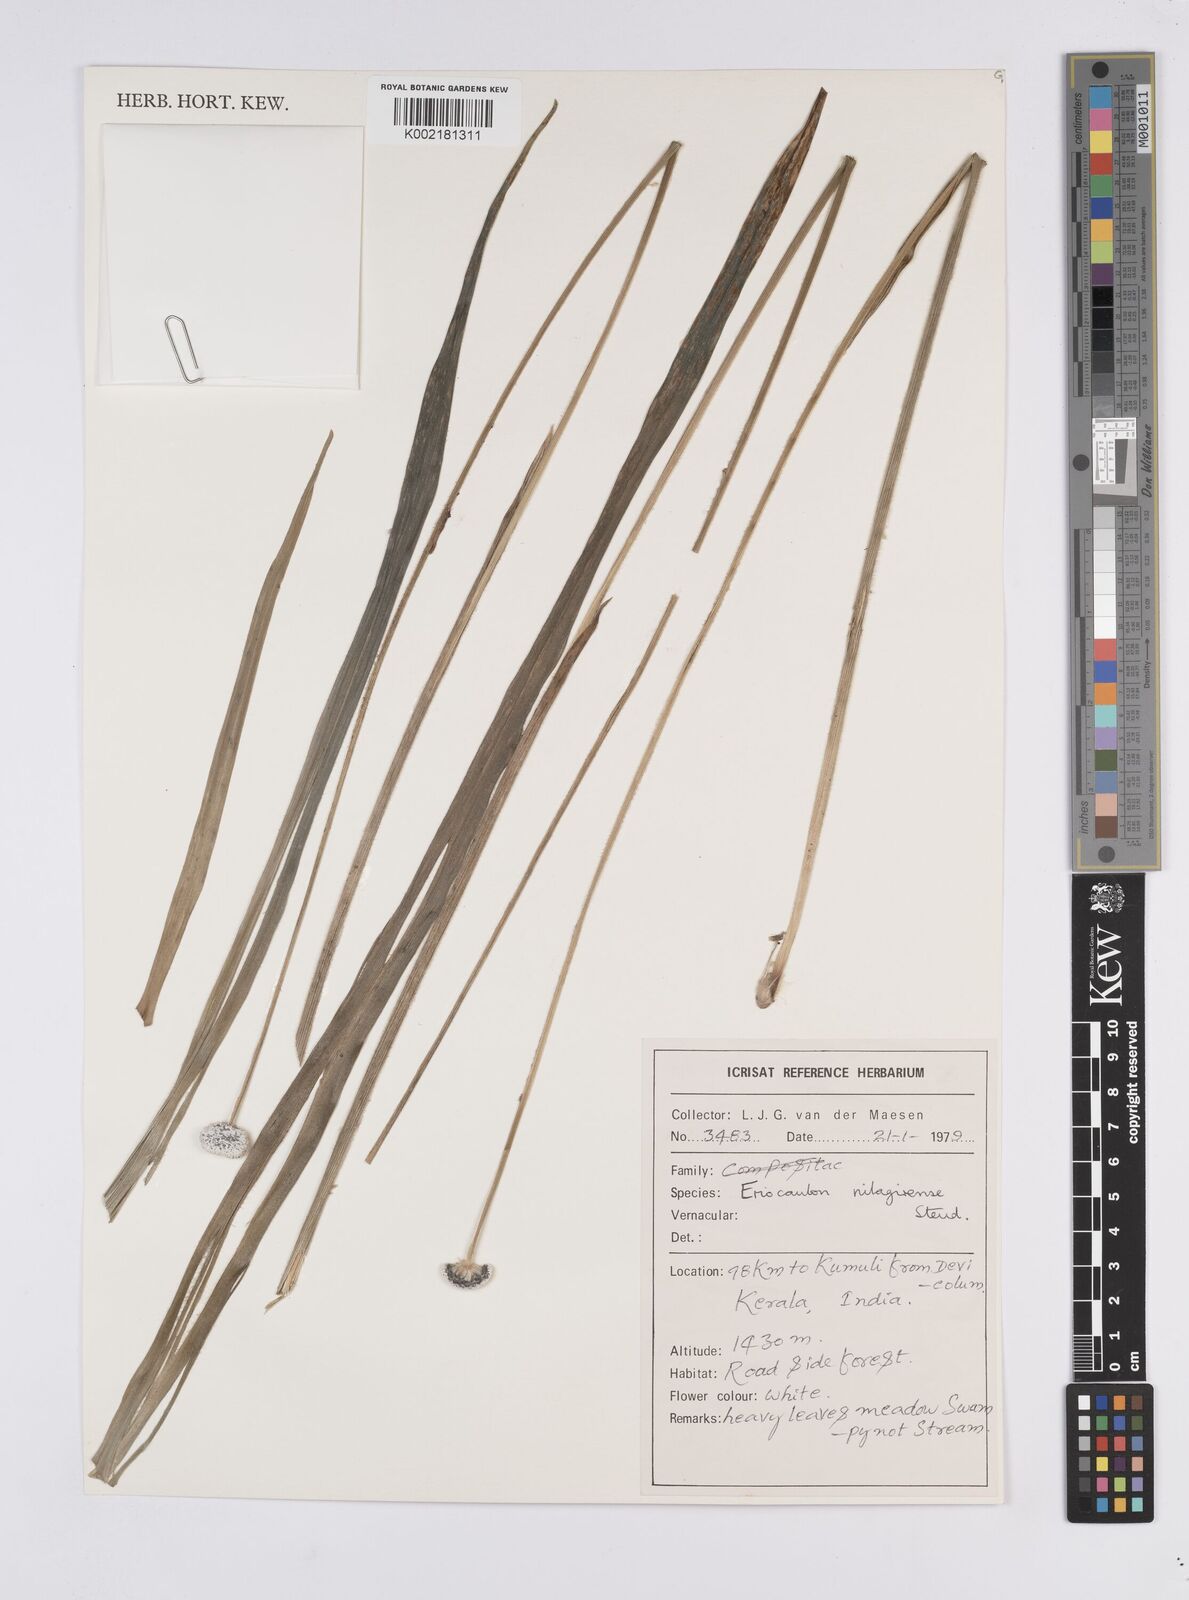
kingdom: Plantae
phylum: Tracheophyta
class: Liliopsida
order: Poales
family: Eriocaulaceae
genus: Eriocaulon
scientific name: Eriocaulon brownianum
